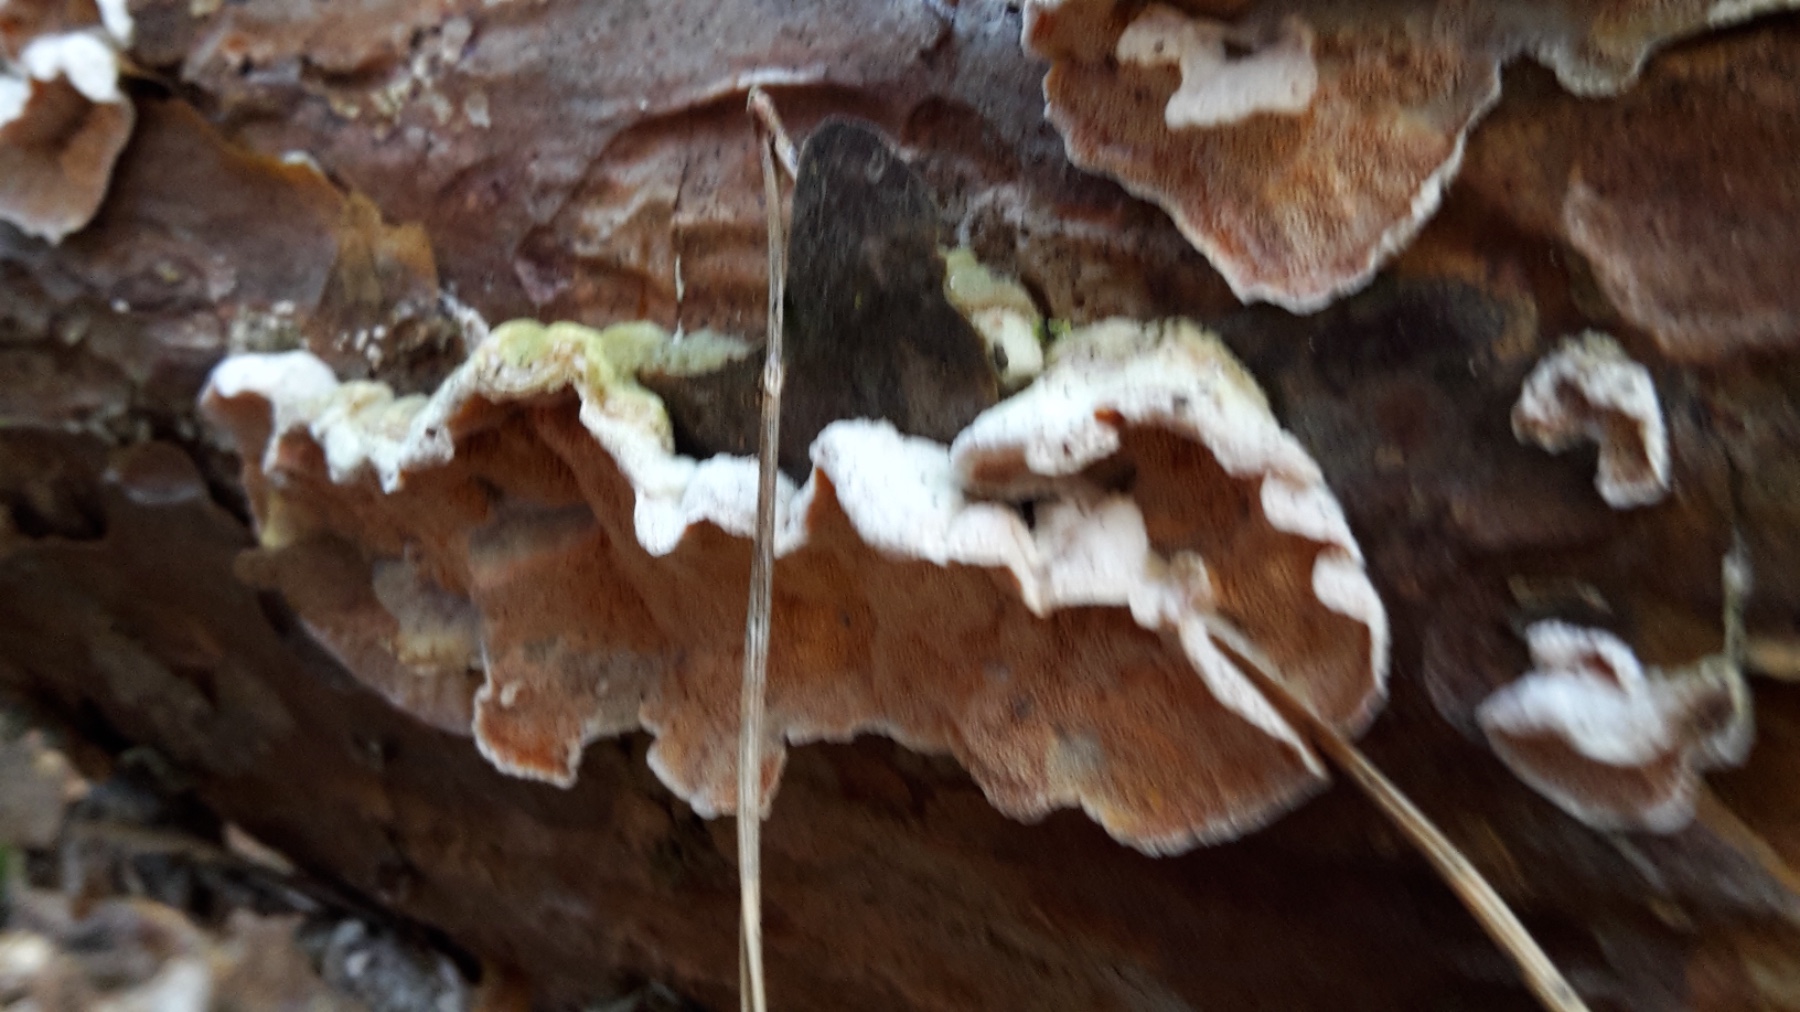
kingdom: Fungi
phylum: Basidiomycota
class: Agaricomycetes
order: Polyporales
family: Incrustoporiaceae
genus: Skeletocutis
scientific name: Skeletocutis amorpha
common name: orange krystalporesvamp
